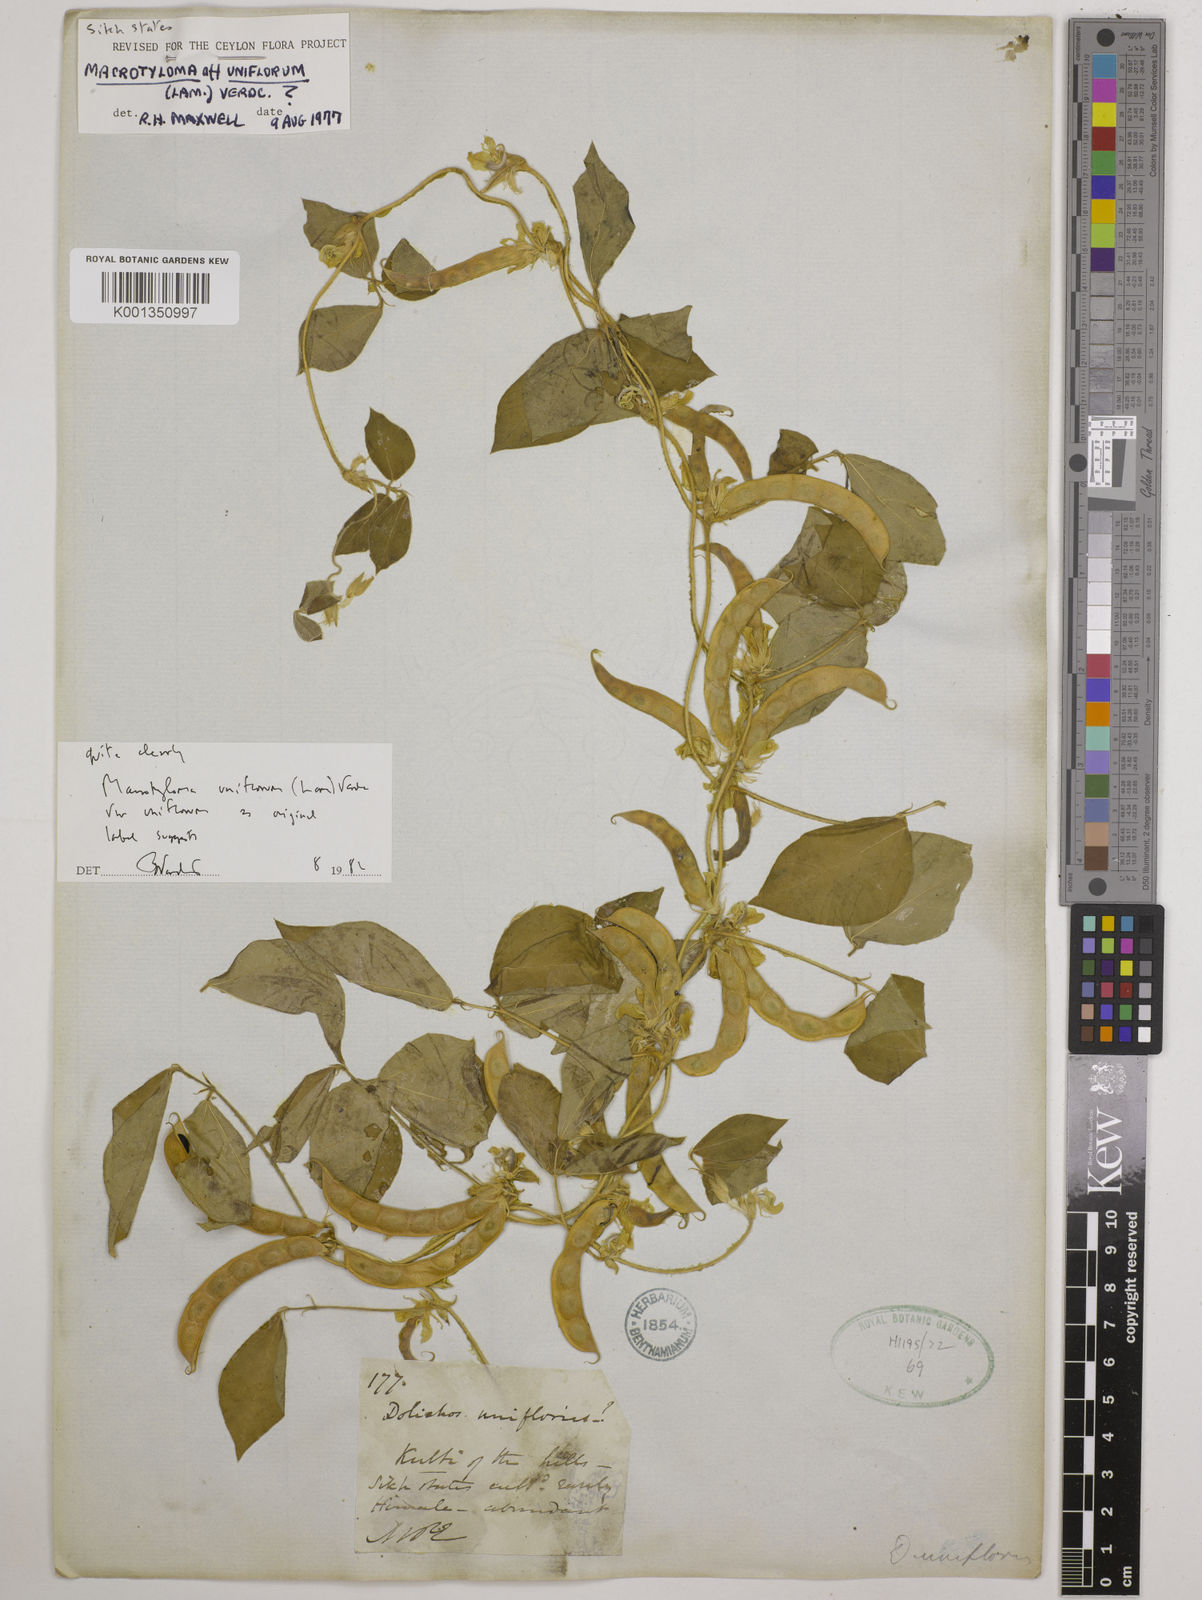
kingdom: Plantae
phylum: Tracheophyta
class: Magnoliopsida
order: Fabales
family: Fabaceae
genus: Macrotyloma
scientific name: Macrotyloma uniflorum
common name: Horse gram
